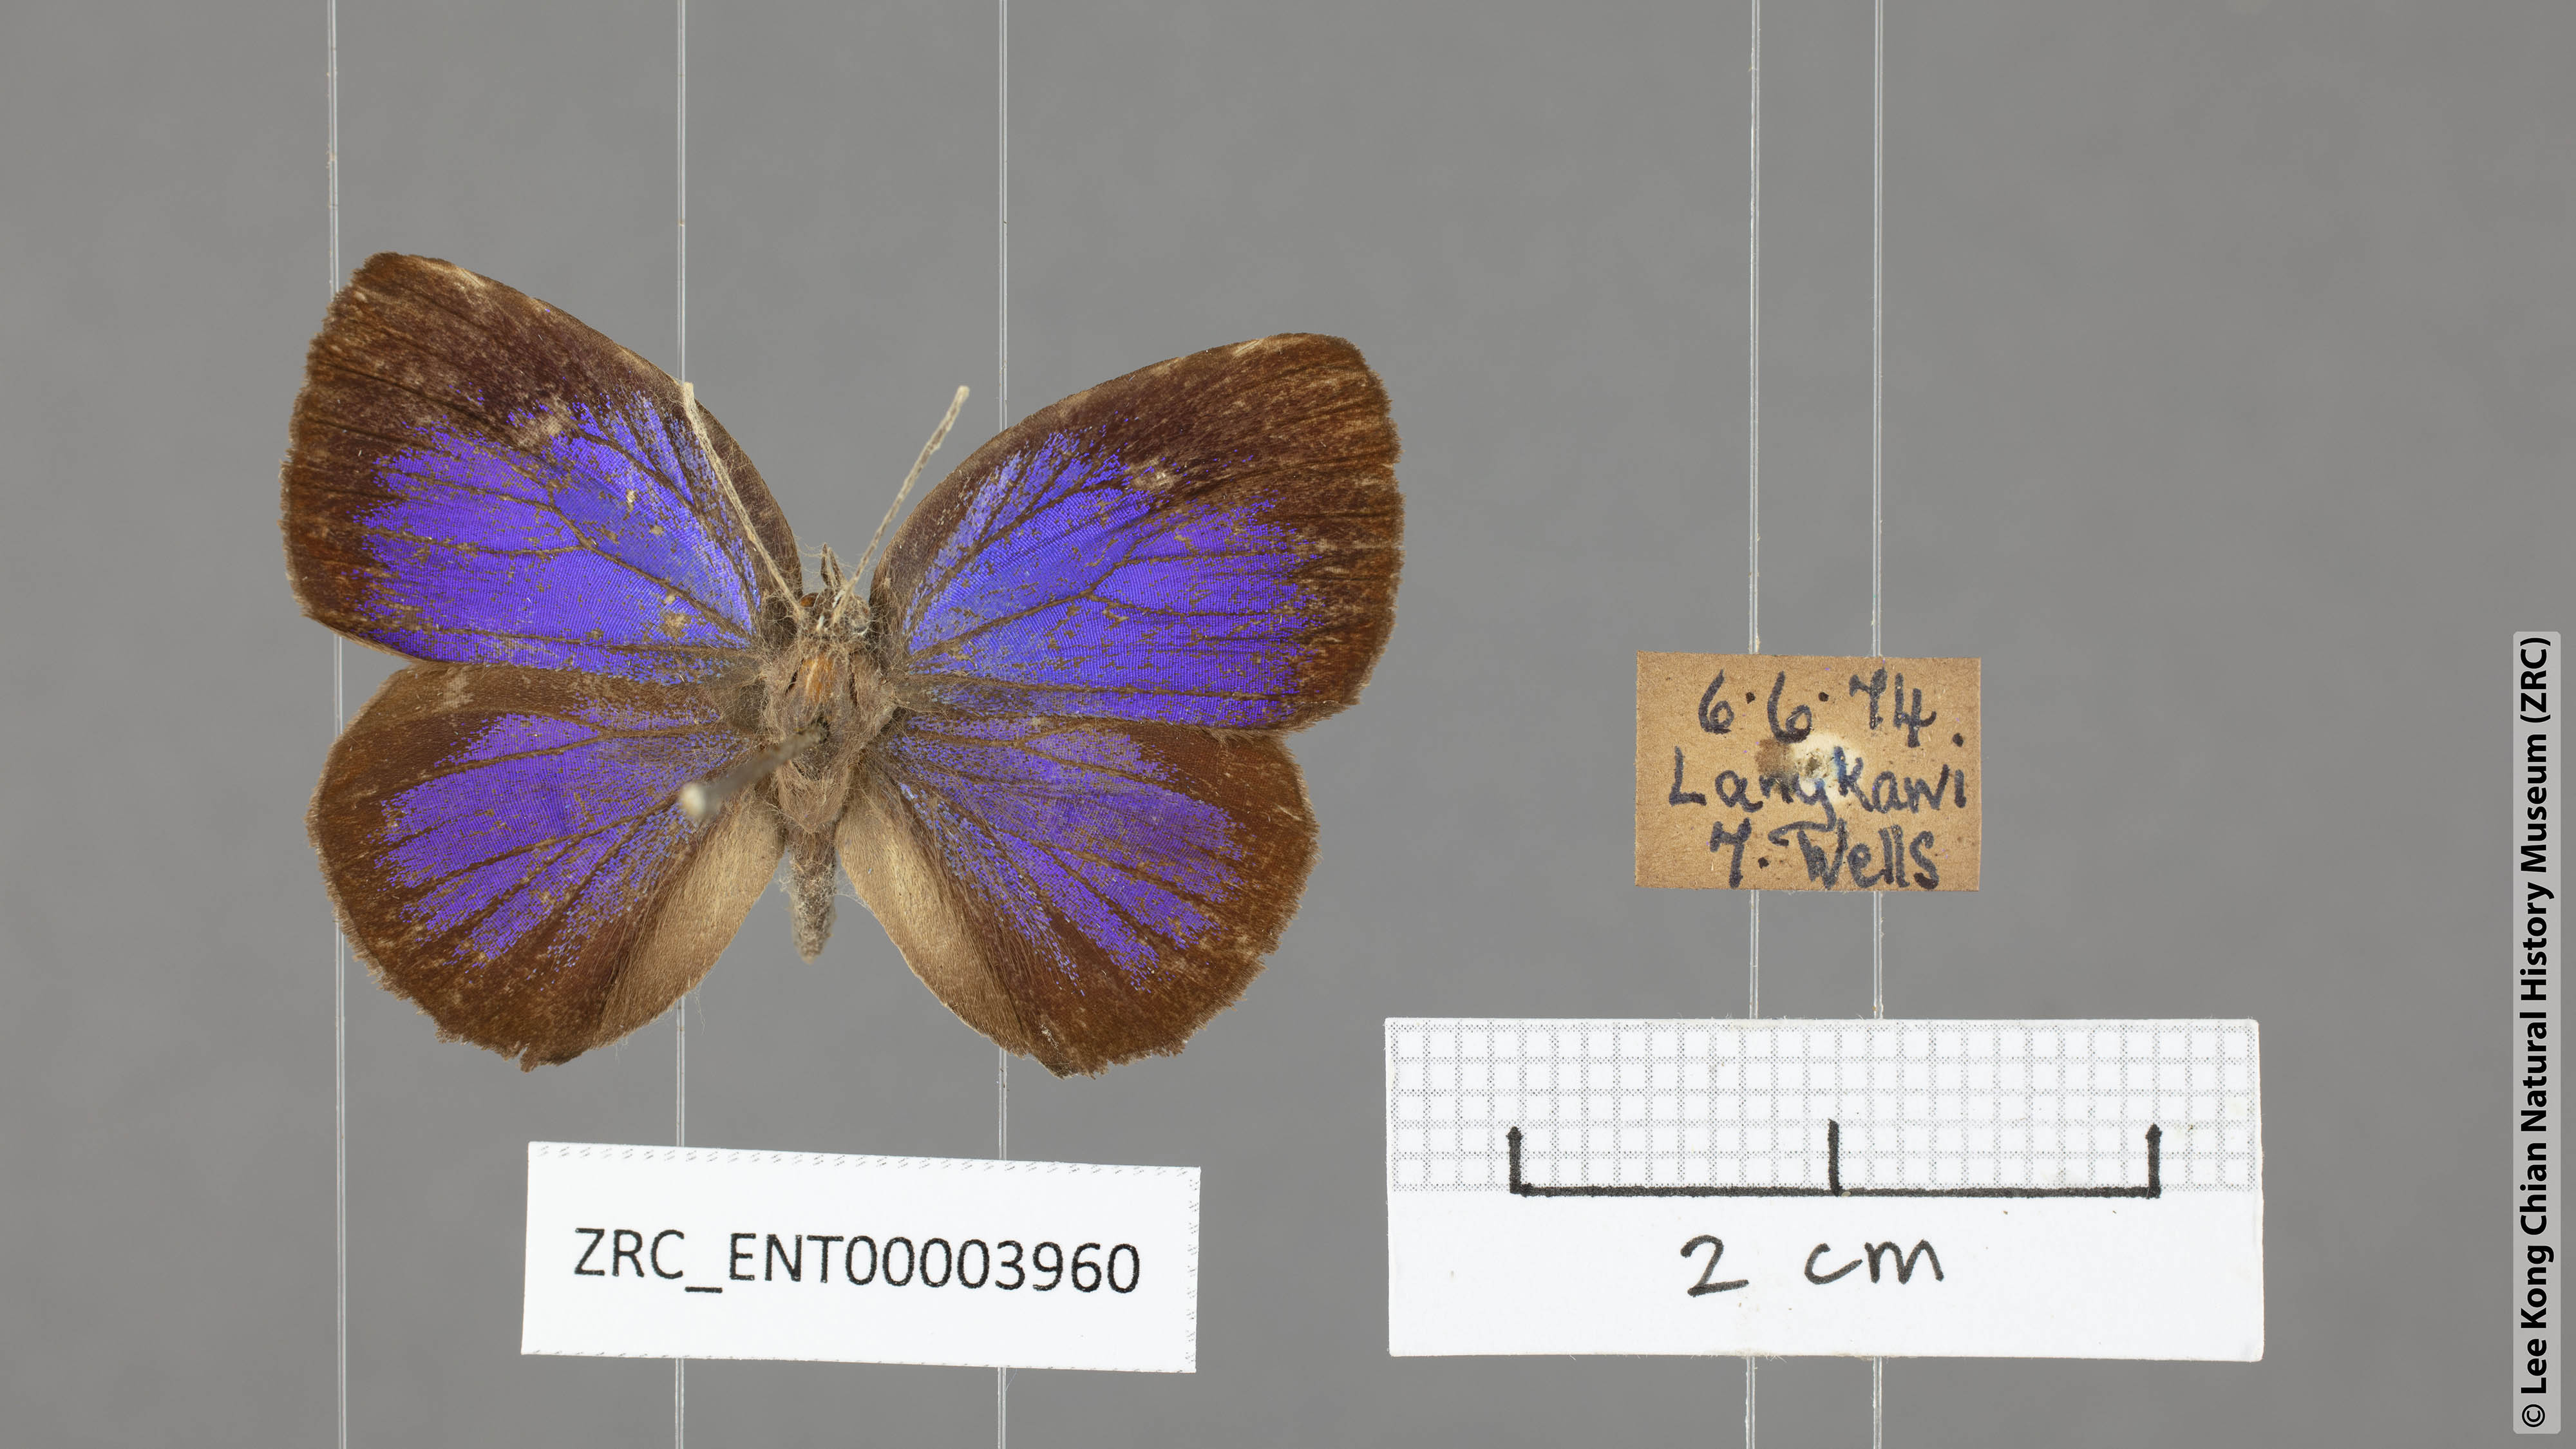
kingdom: Animalia
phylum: Arthropoda
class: Insecta
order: Lepidoptera
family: Lycaenidae
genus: Arhopala
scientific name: Arhopala hypomuta
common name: Violet oakblue
